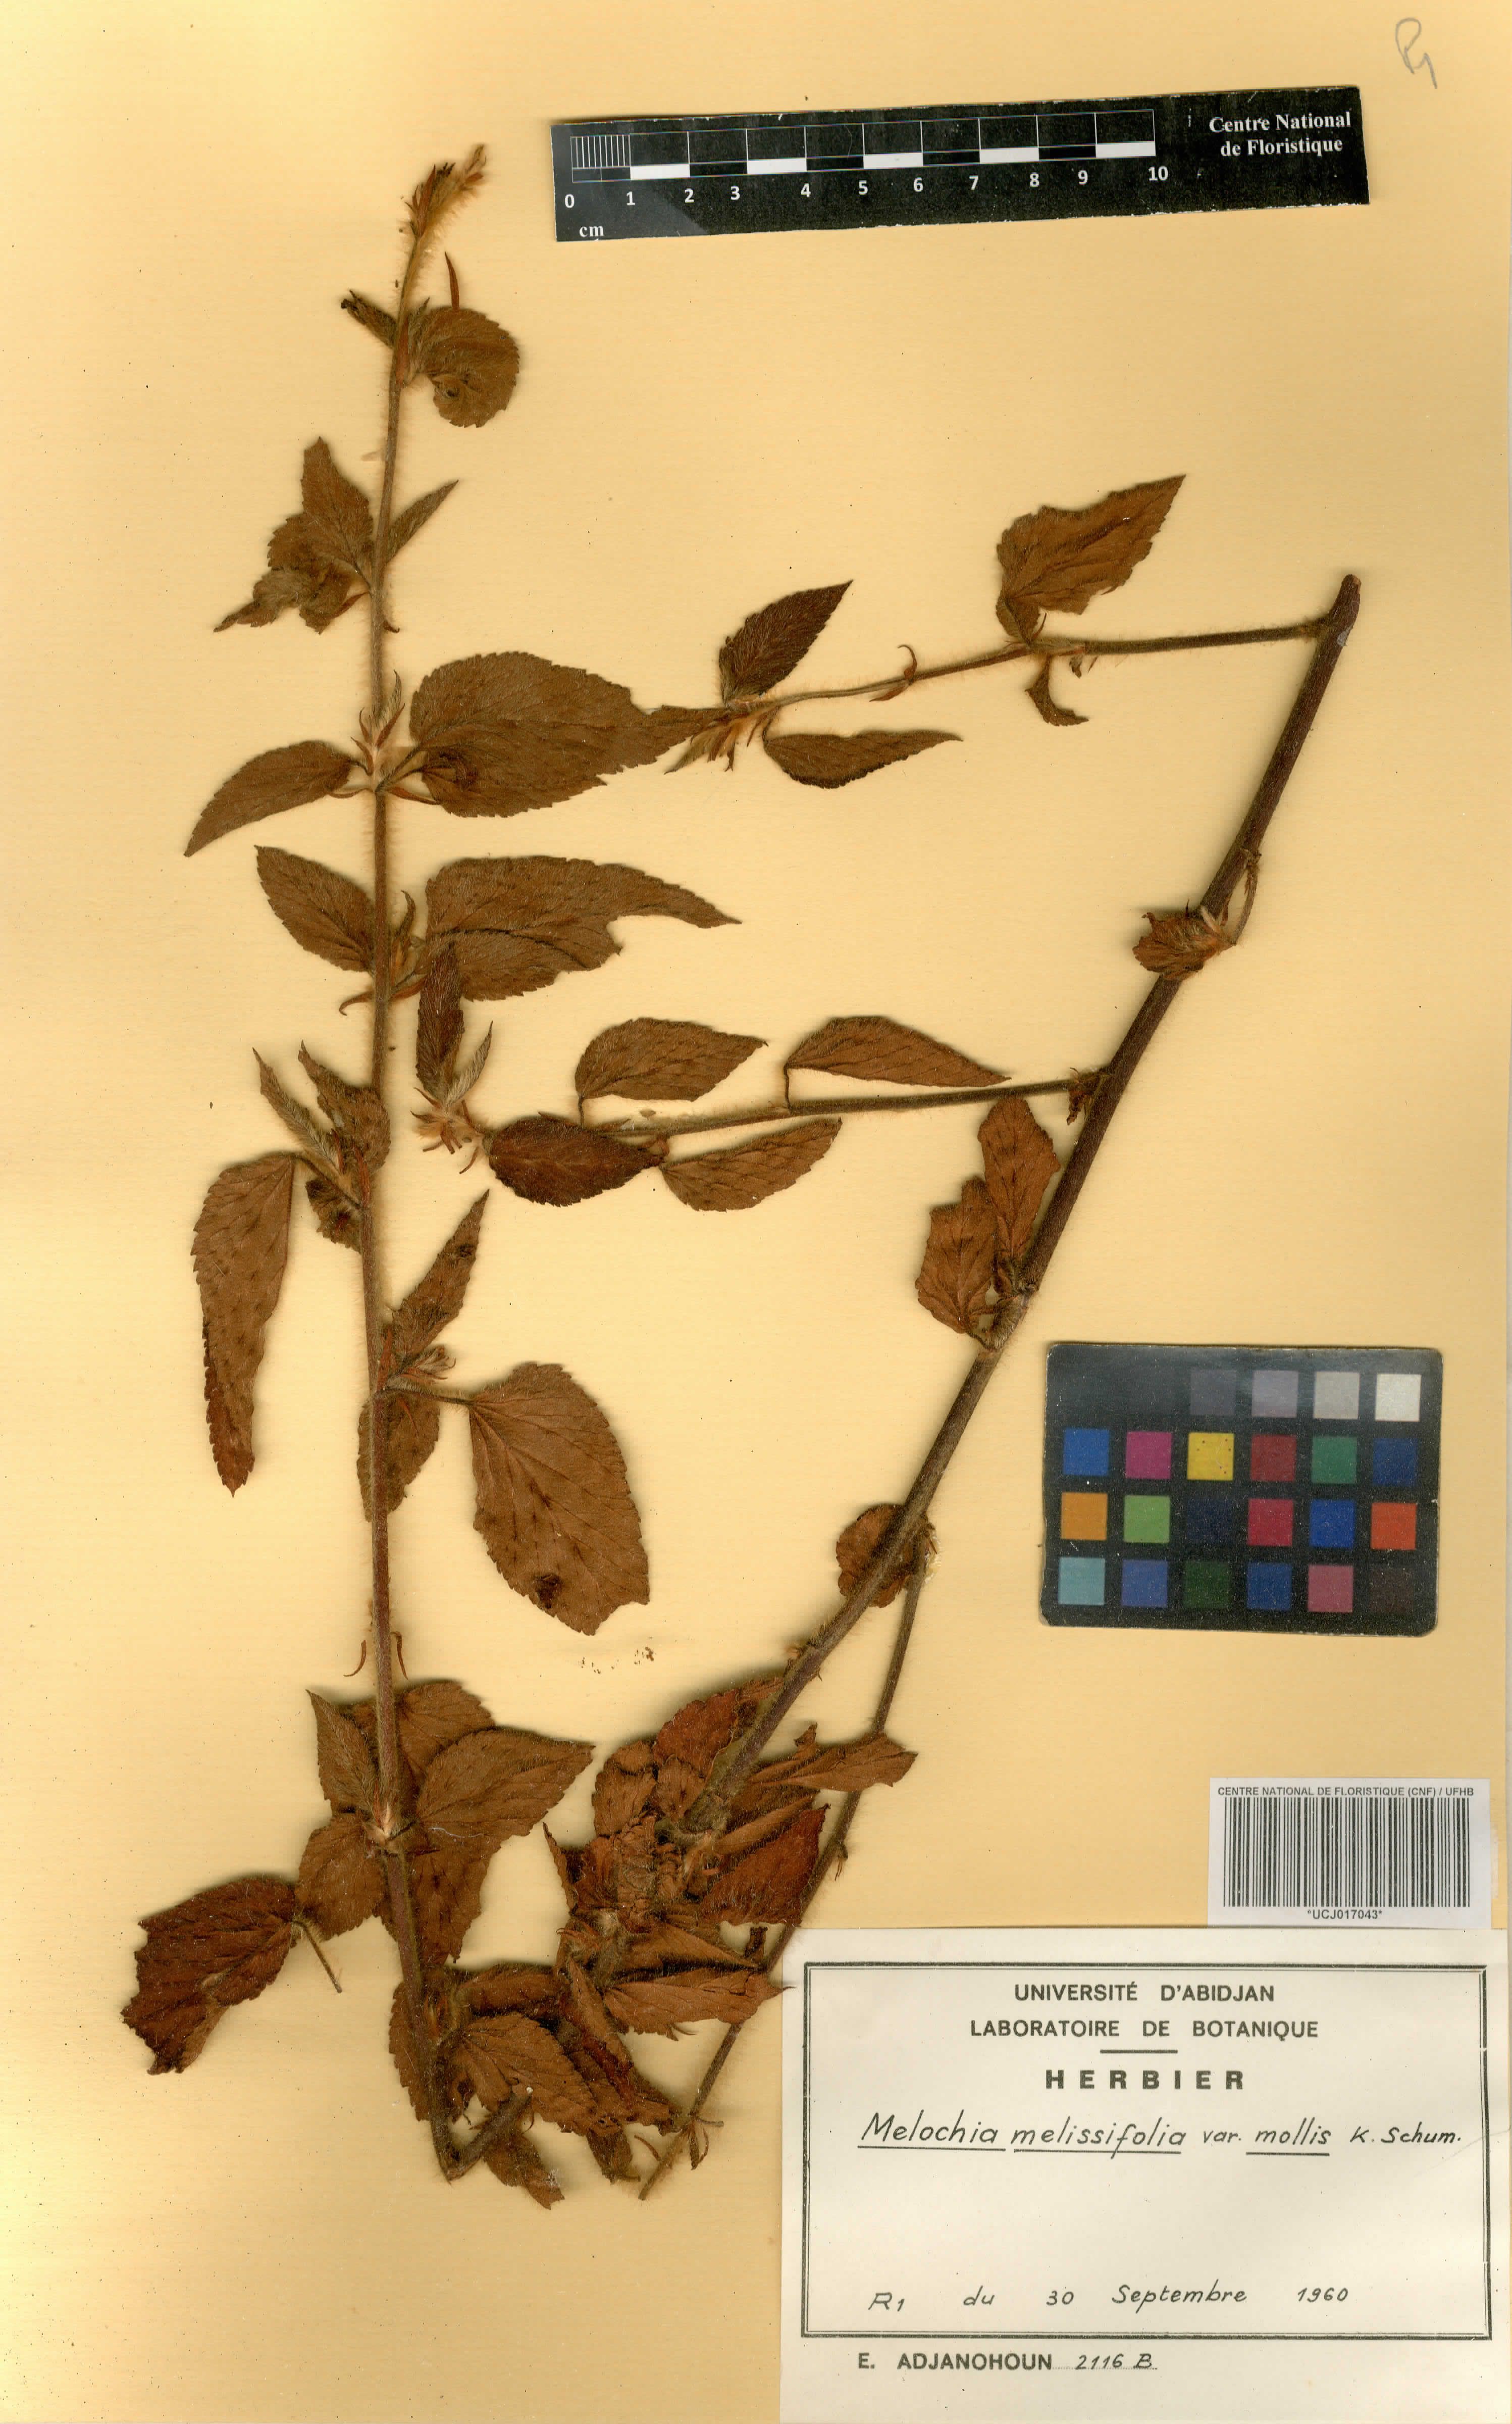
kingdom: Plantae
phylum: Tracheophyta
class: Magnoliopsida
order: Malvales
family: Malvaceae
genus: Melochia
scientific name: Melochia melissifolia
